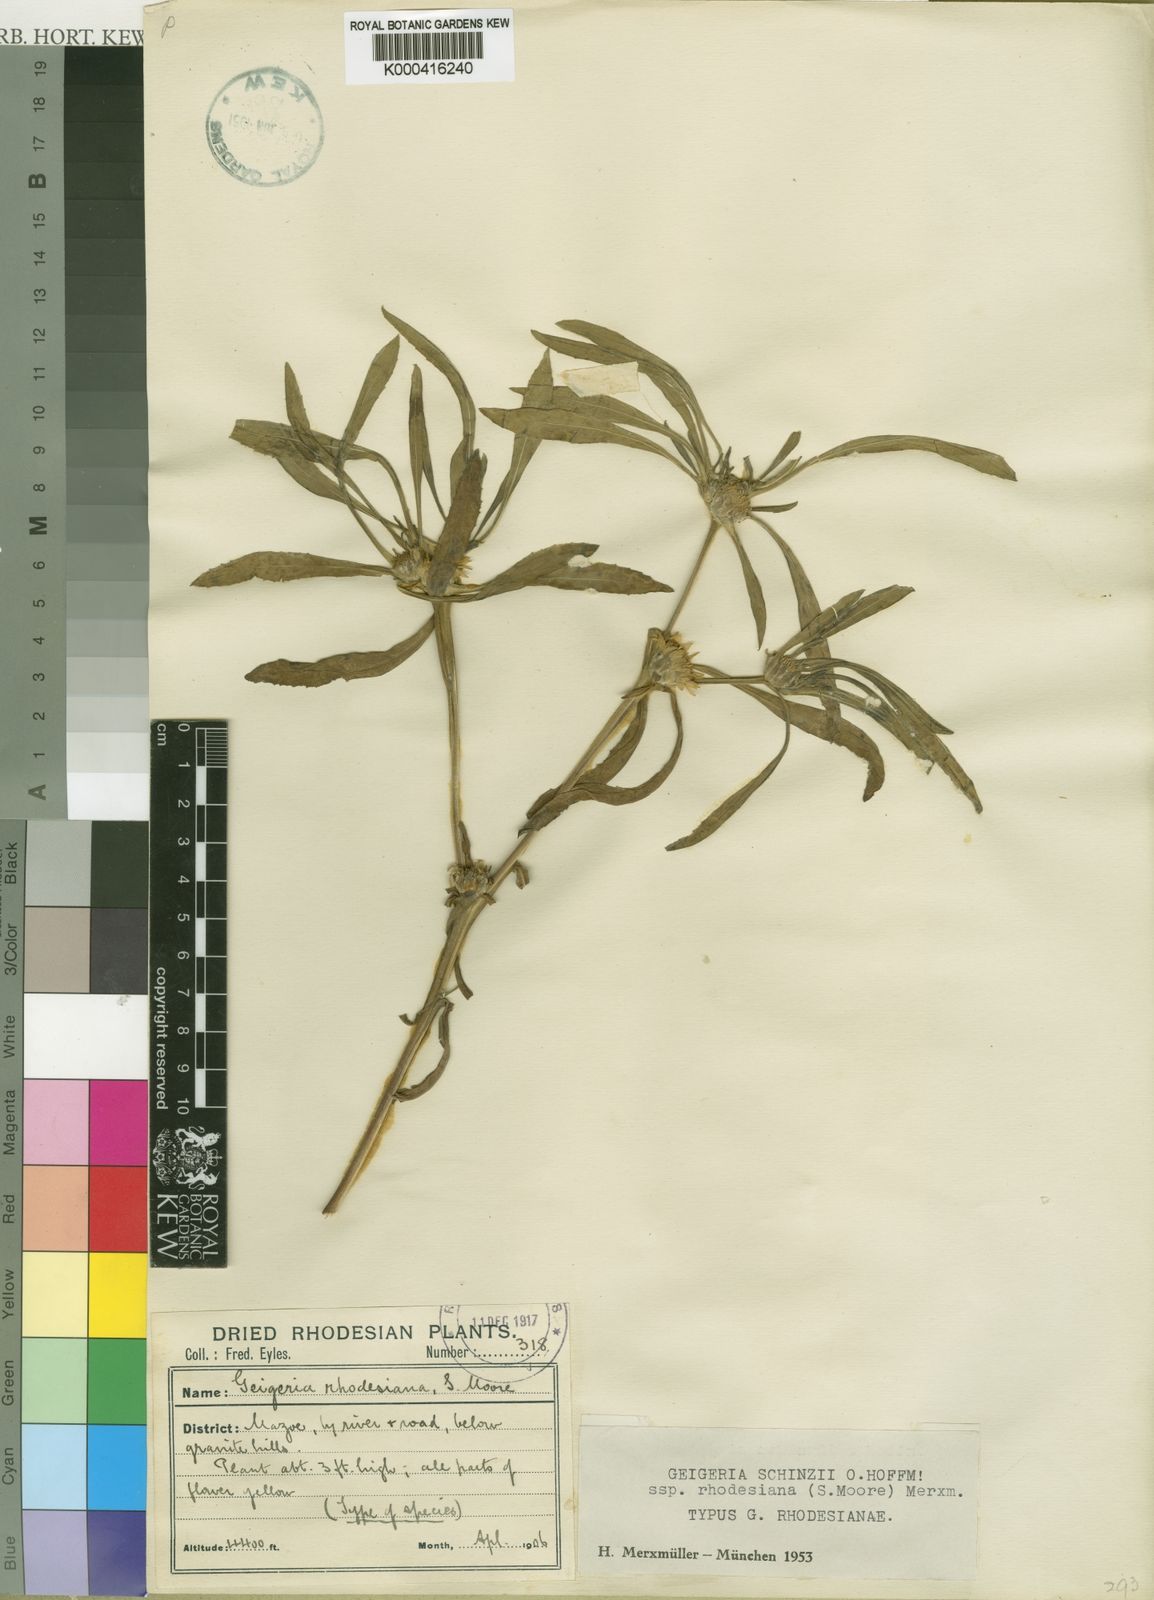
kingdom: Plantae
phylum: Tracheophyta
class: Magnoliopsida
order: Asterales
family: Asteraceae
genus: Geigeria
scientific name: Geigeria schinzii
